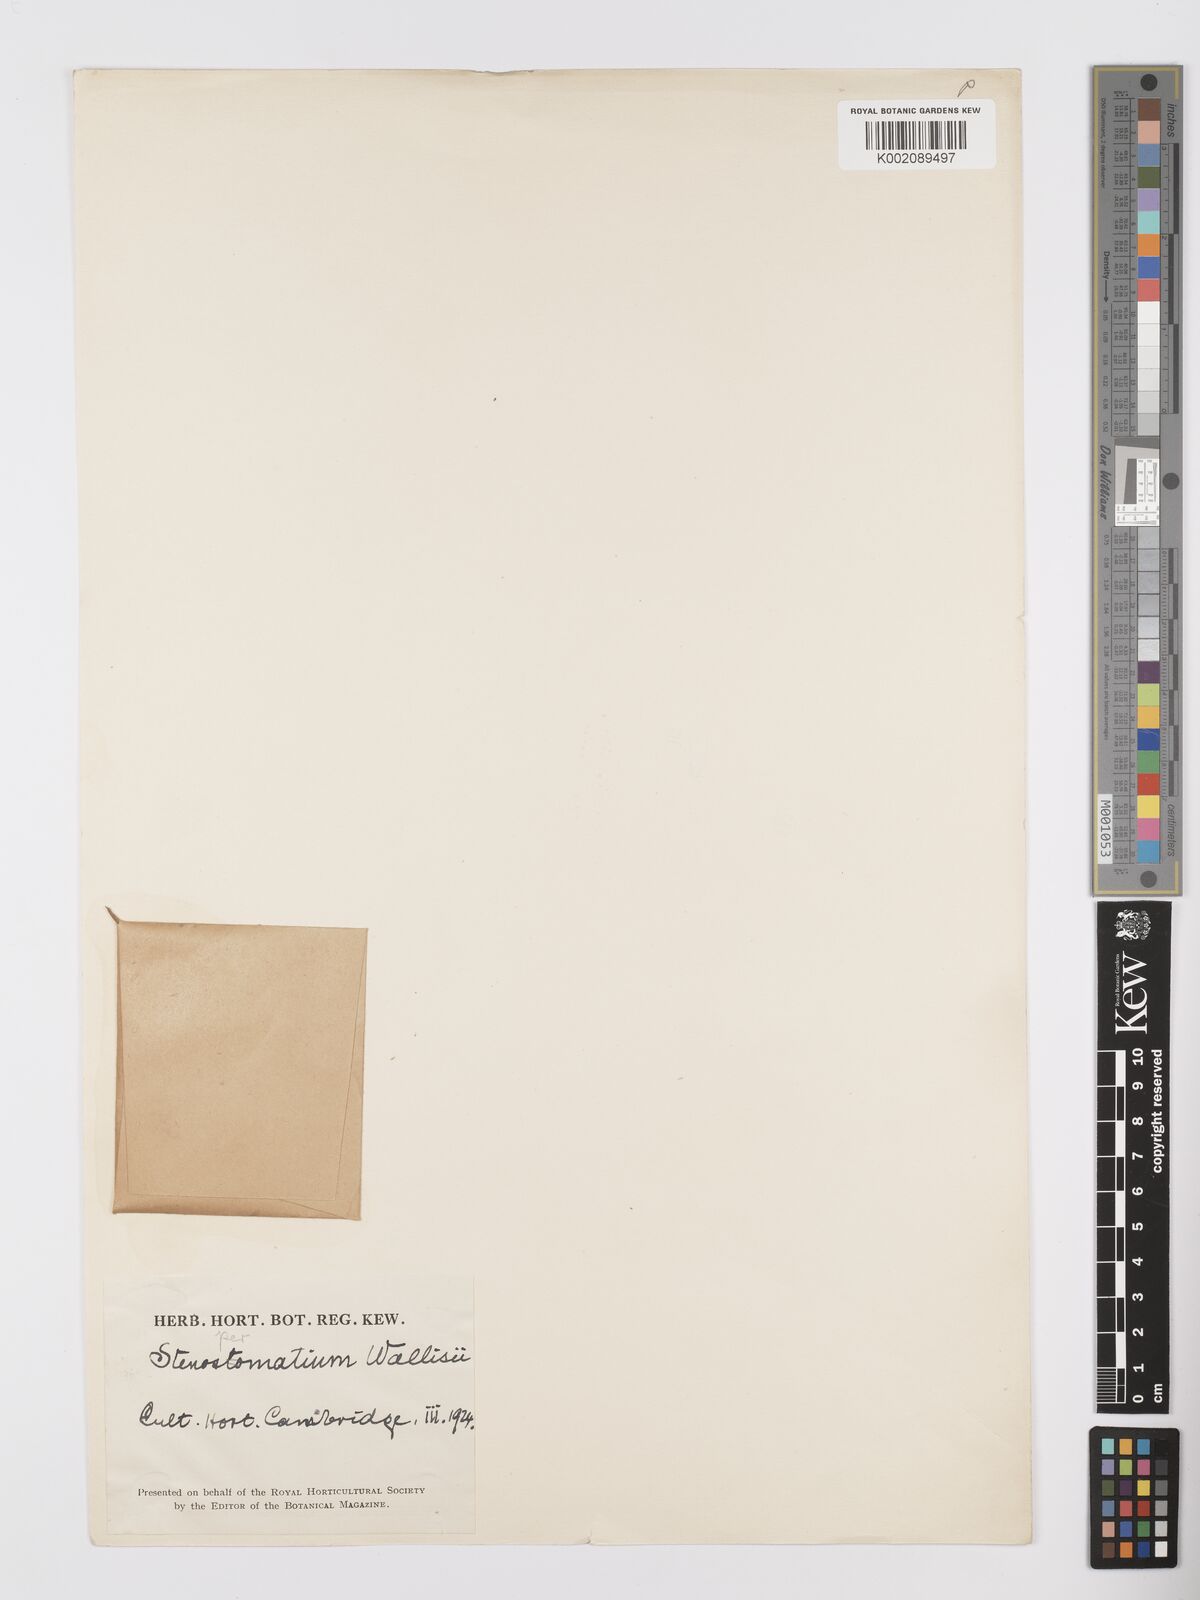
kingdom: Plantae
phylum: Tracheophyta
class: Liliopsida
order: Alismatales
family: Araceae
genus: Stenospermation
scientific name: Stenospermation wallisii
